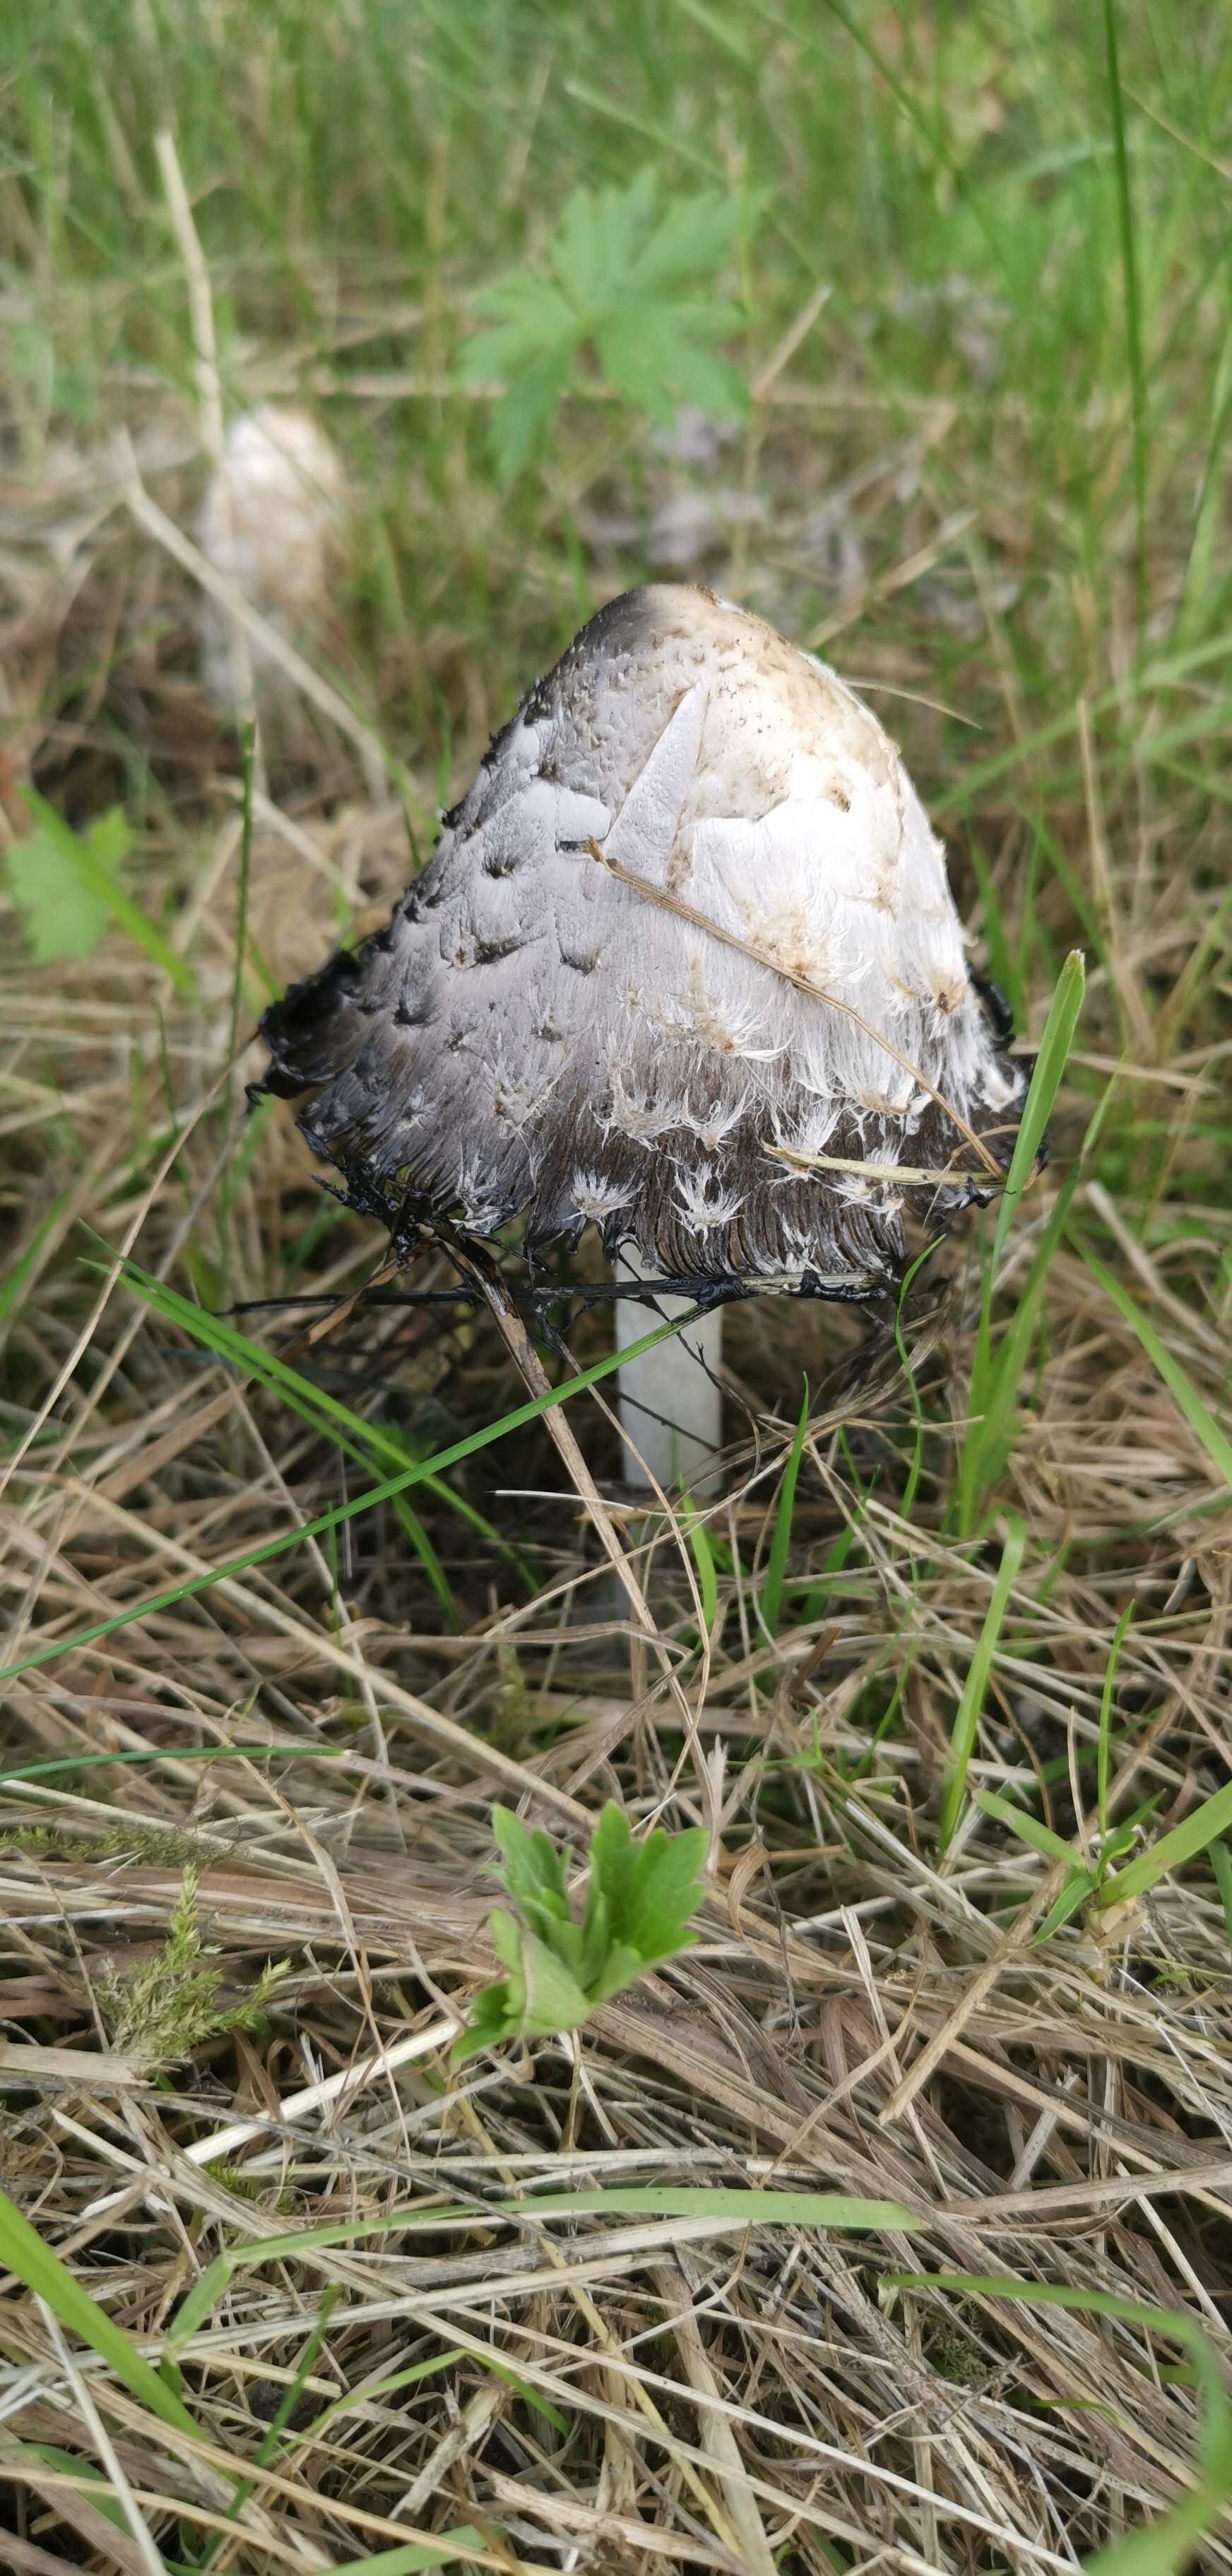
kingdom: Fungi
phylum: Basidiomycota
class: Agaricomycetes
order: Agaricales
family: Agaricaceae
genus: Coprinus
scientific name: Coprinus comatus
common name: stor parykhat
